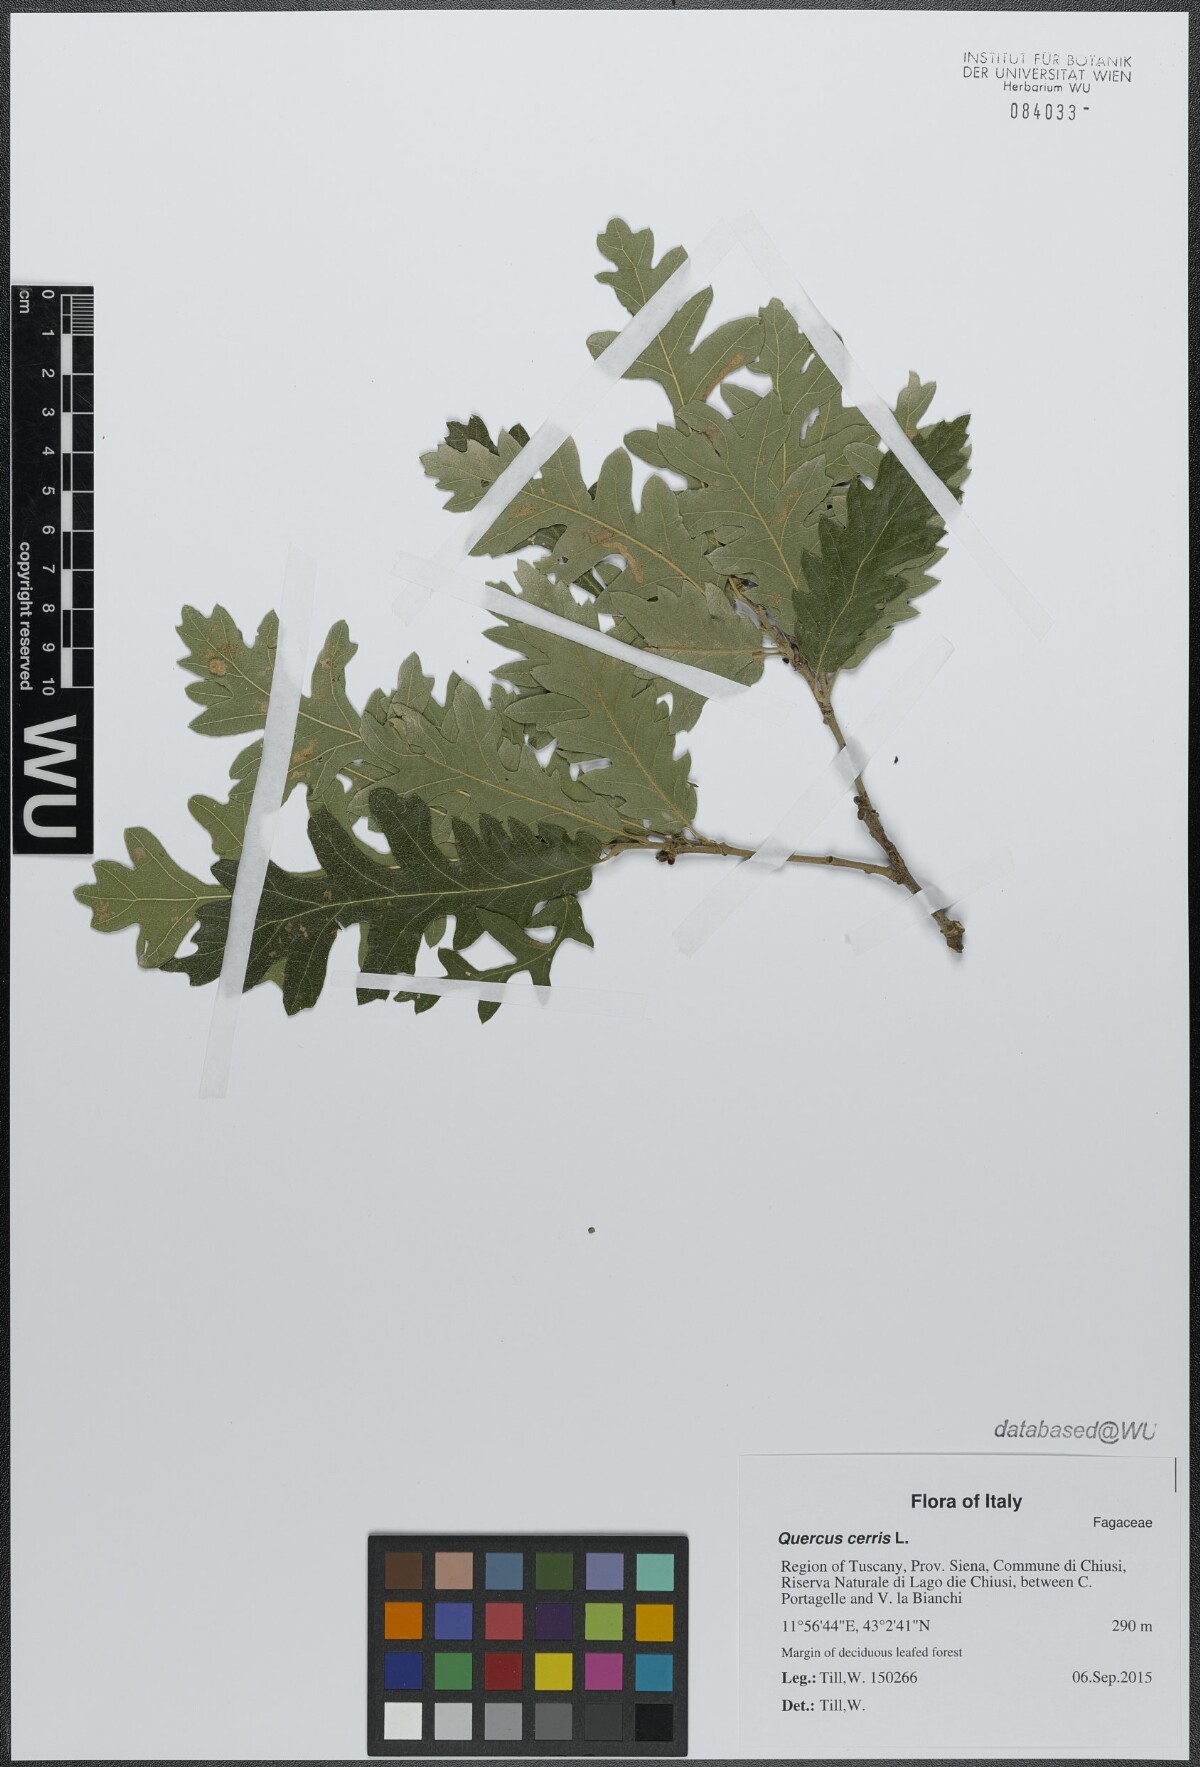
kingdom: Plantae
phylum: Tracheophyta
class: Magnoliopsida
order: Fagales
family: Fagaceae
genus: Quercus
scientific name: Quercus cerris
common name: Turkey oak
